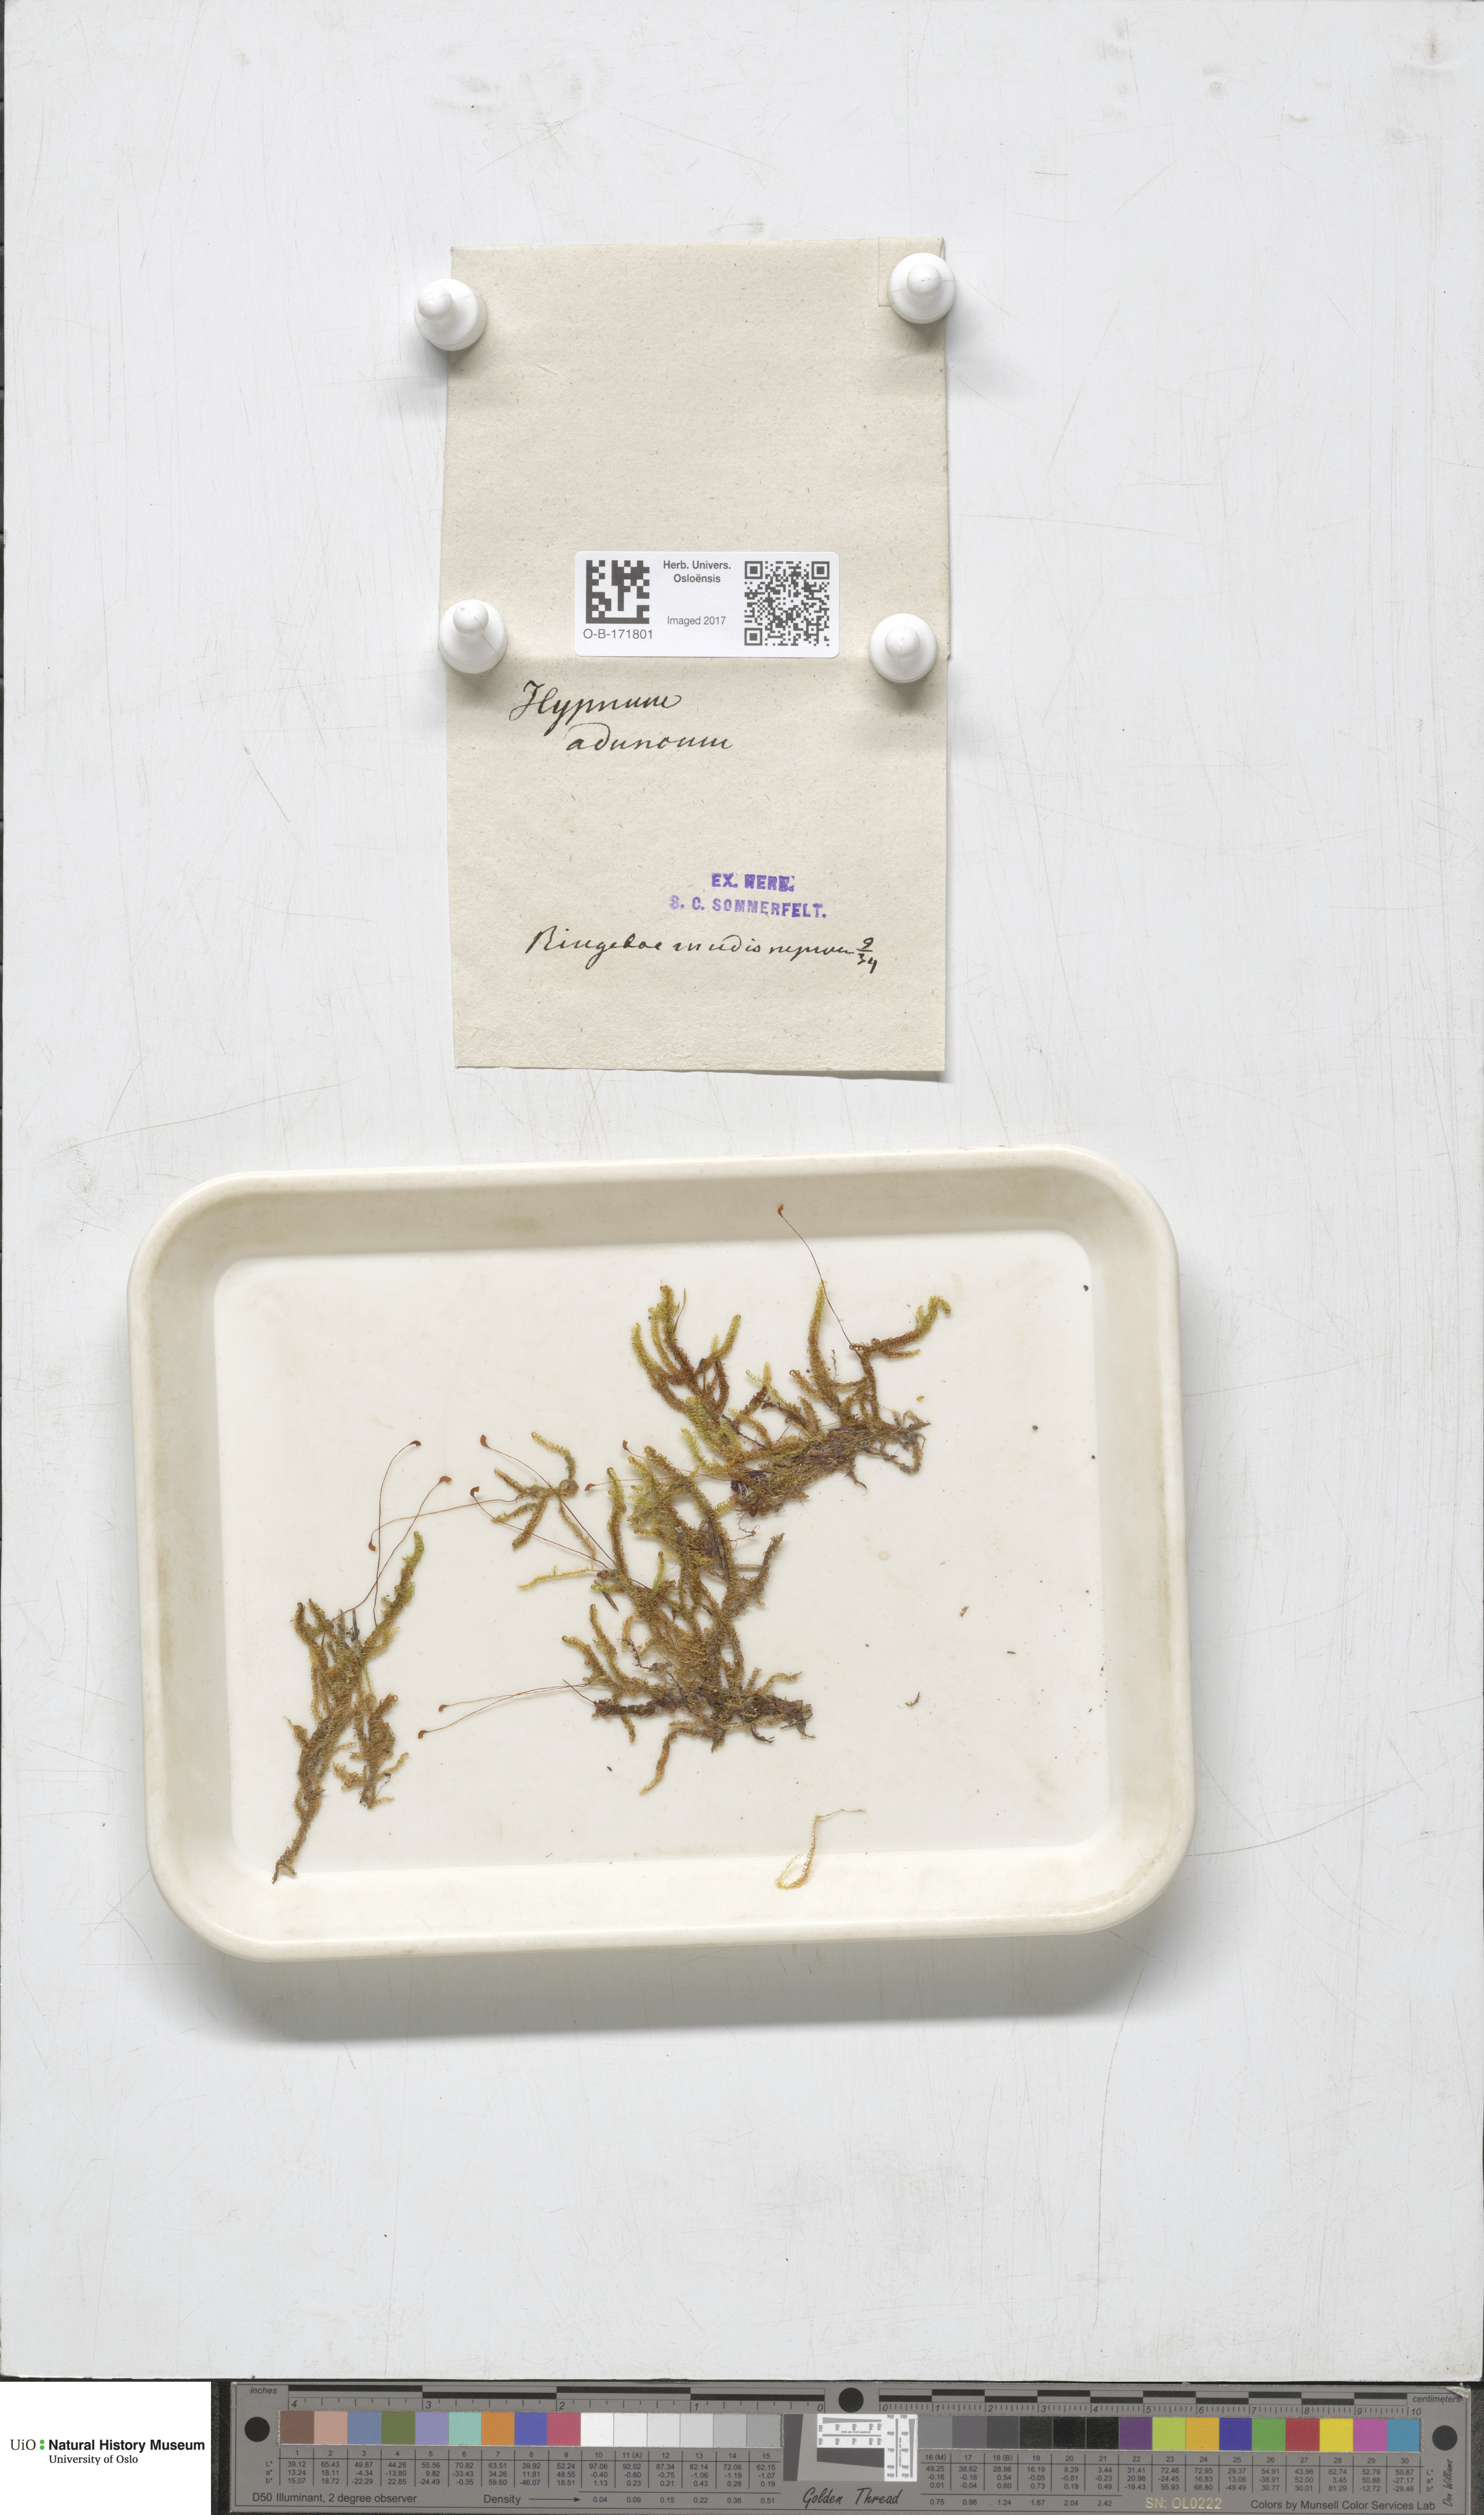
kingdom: Plantae
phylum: Bryophyta
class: Bryopsida
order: Hypnales
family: Amblystegiaceae
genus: Drepanocladus
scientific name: Drepanocladus aduncus
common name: Knieff's hook moss
